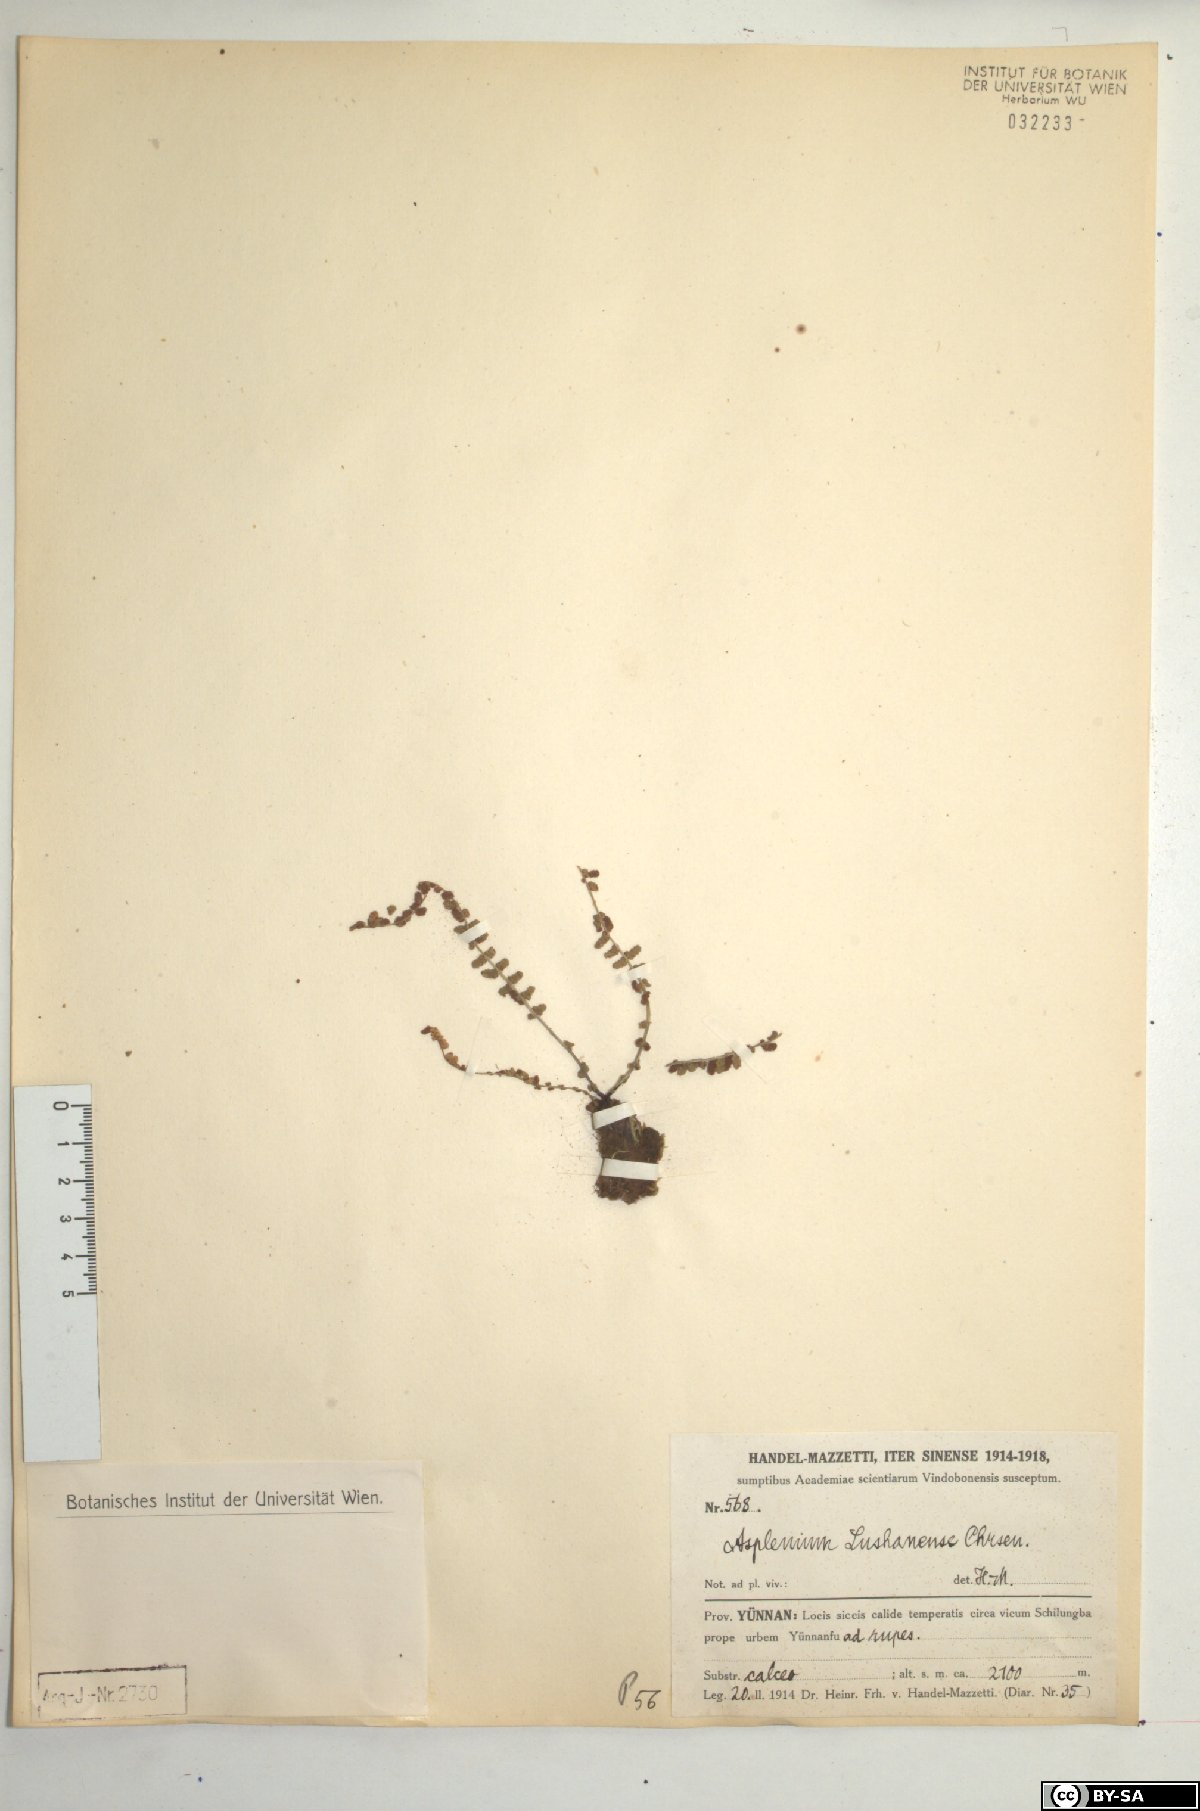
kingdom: Plantae
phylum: Tracheophyta
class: Polypodiopsida
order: Polypodiales
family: Aspleniaceae
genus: Asplenium
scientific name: Asplenium exiguum
